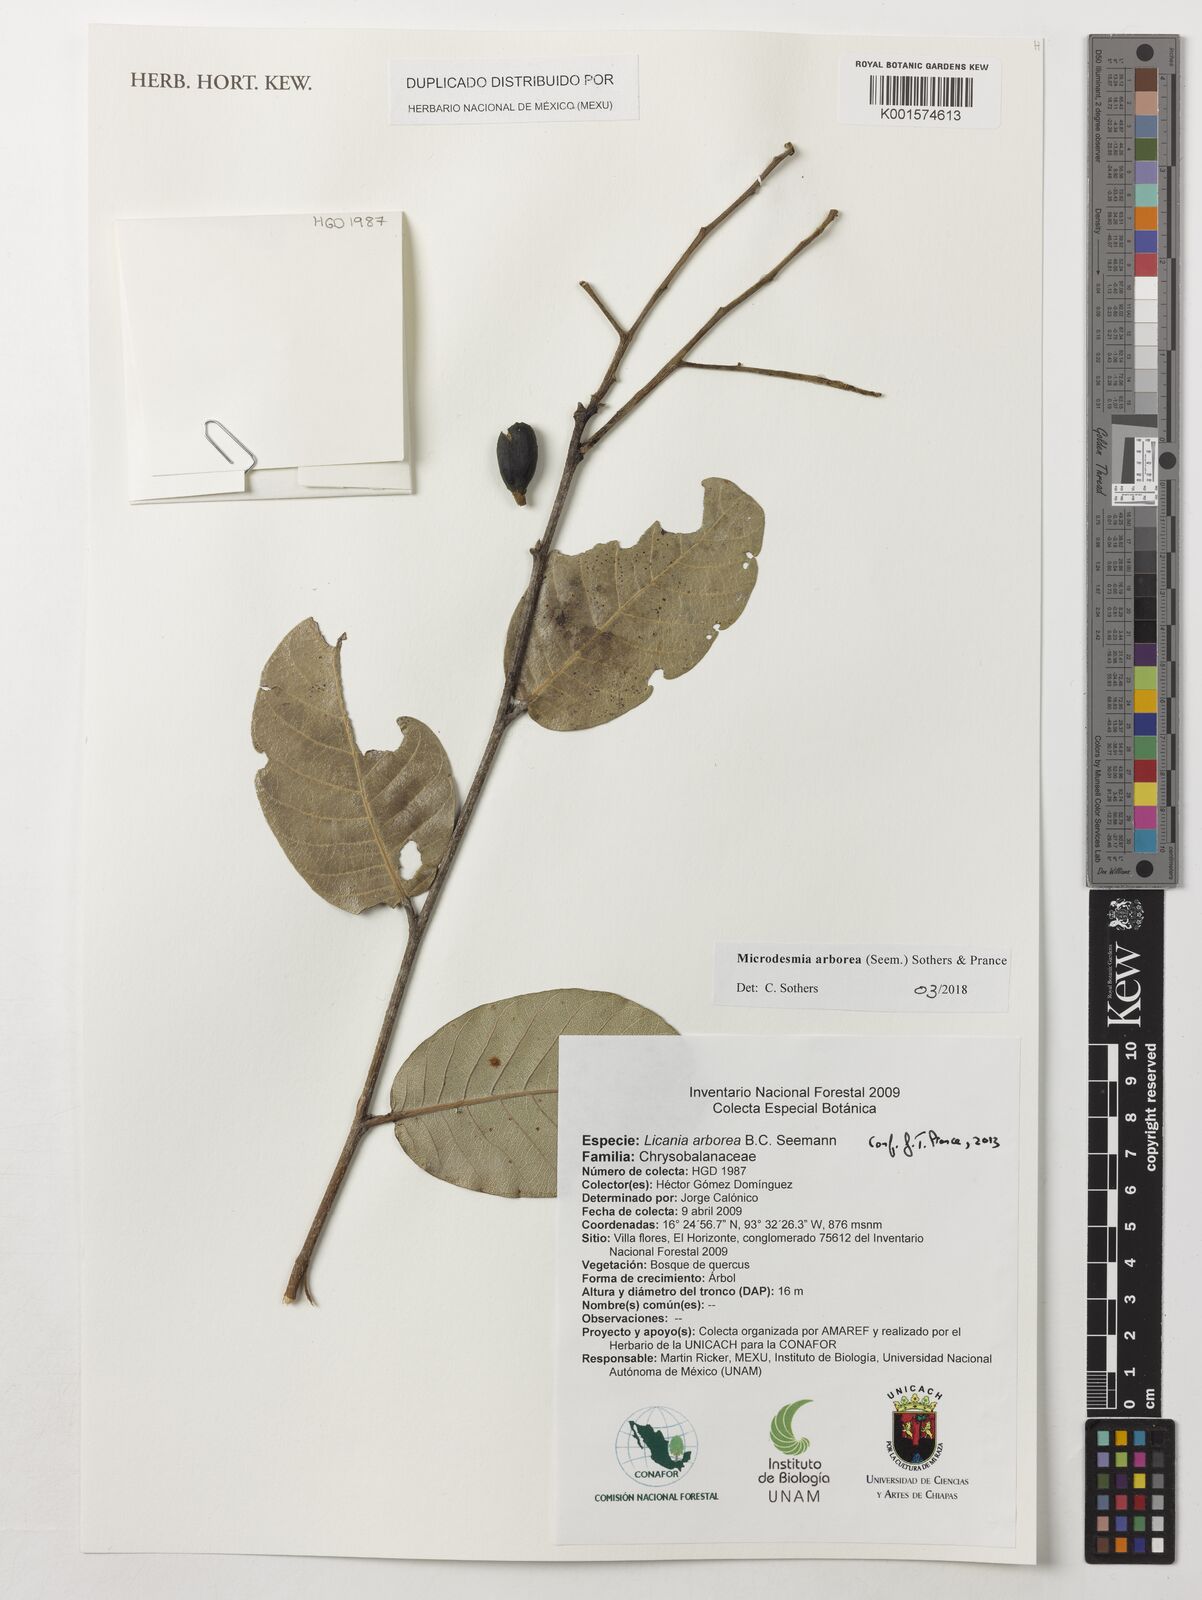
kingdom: Plantae
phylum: Tracheophyta
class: Magnoliopsida
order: Malpighiales
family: Chrysobalanaceae
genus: Microdesmia
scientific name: Microdesmia arborea
